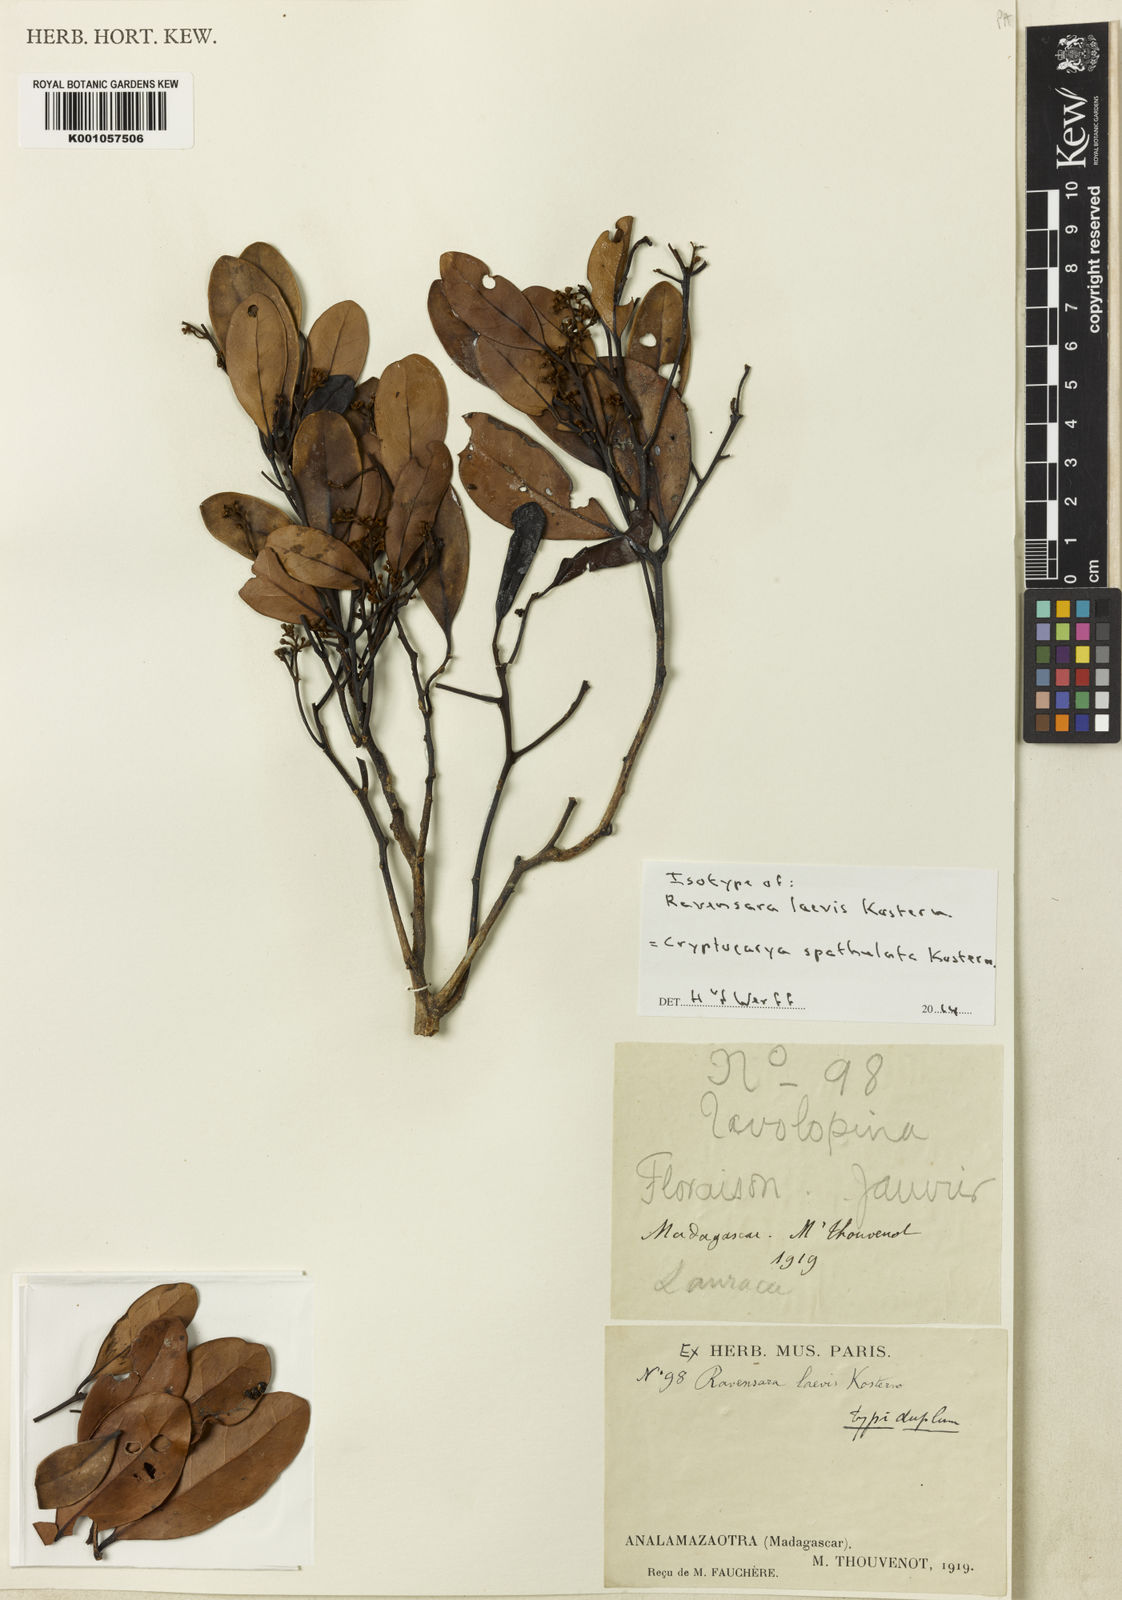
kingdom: Plantae
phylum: Tracheophyta
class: Magnoliopsida
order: Laurales
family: Lauraceae
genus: Cryptocarya
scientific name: Cryptocarya spathulata
